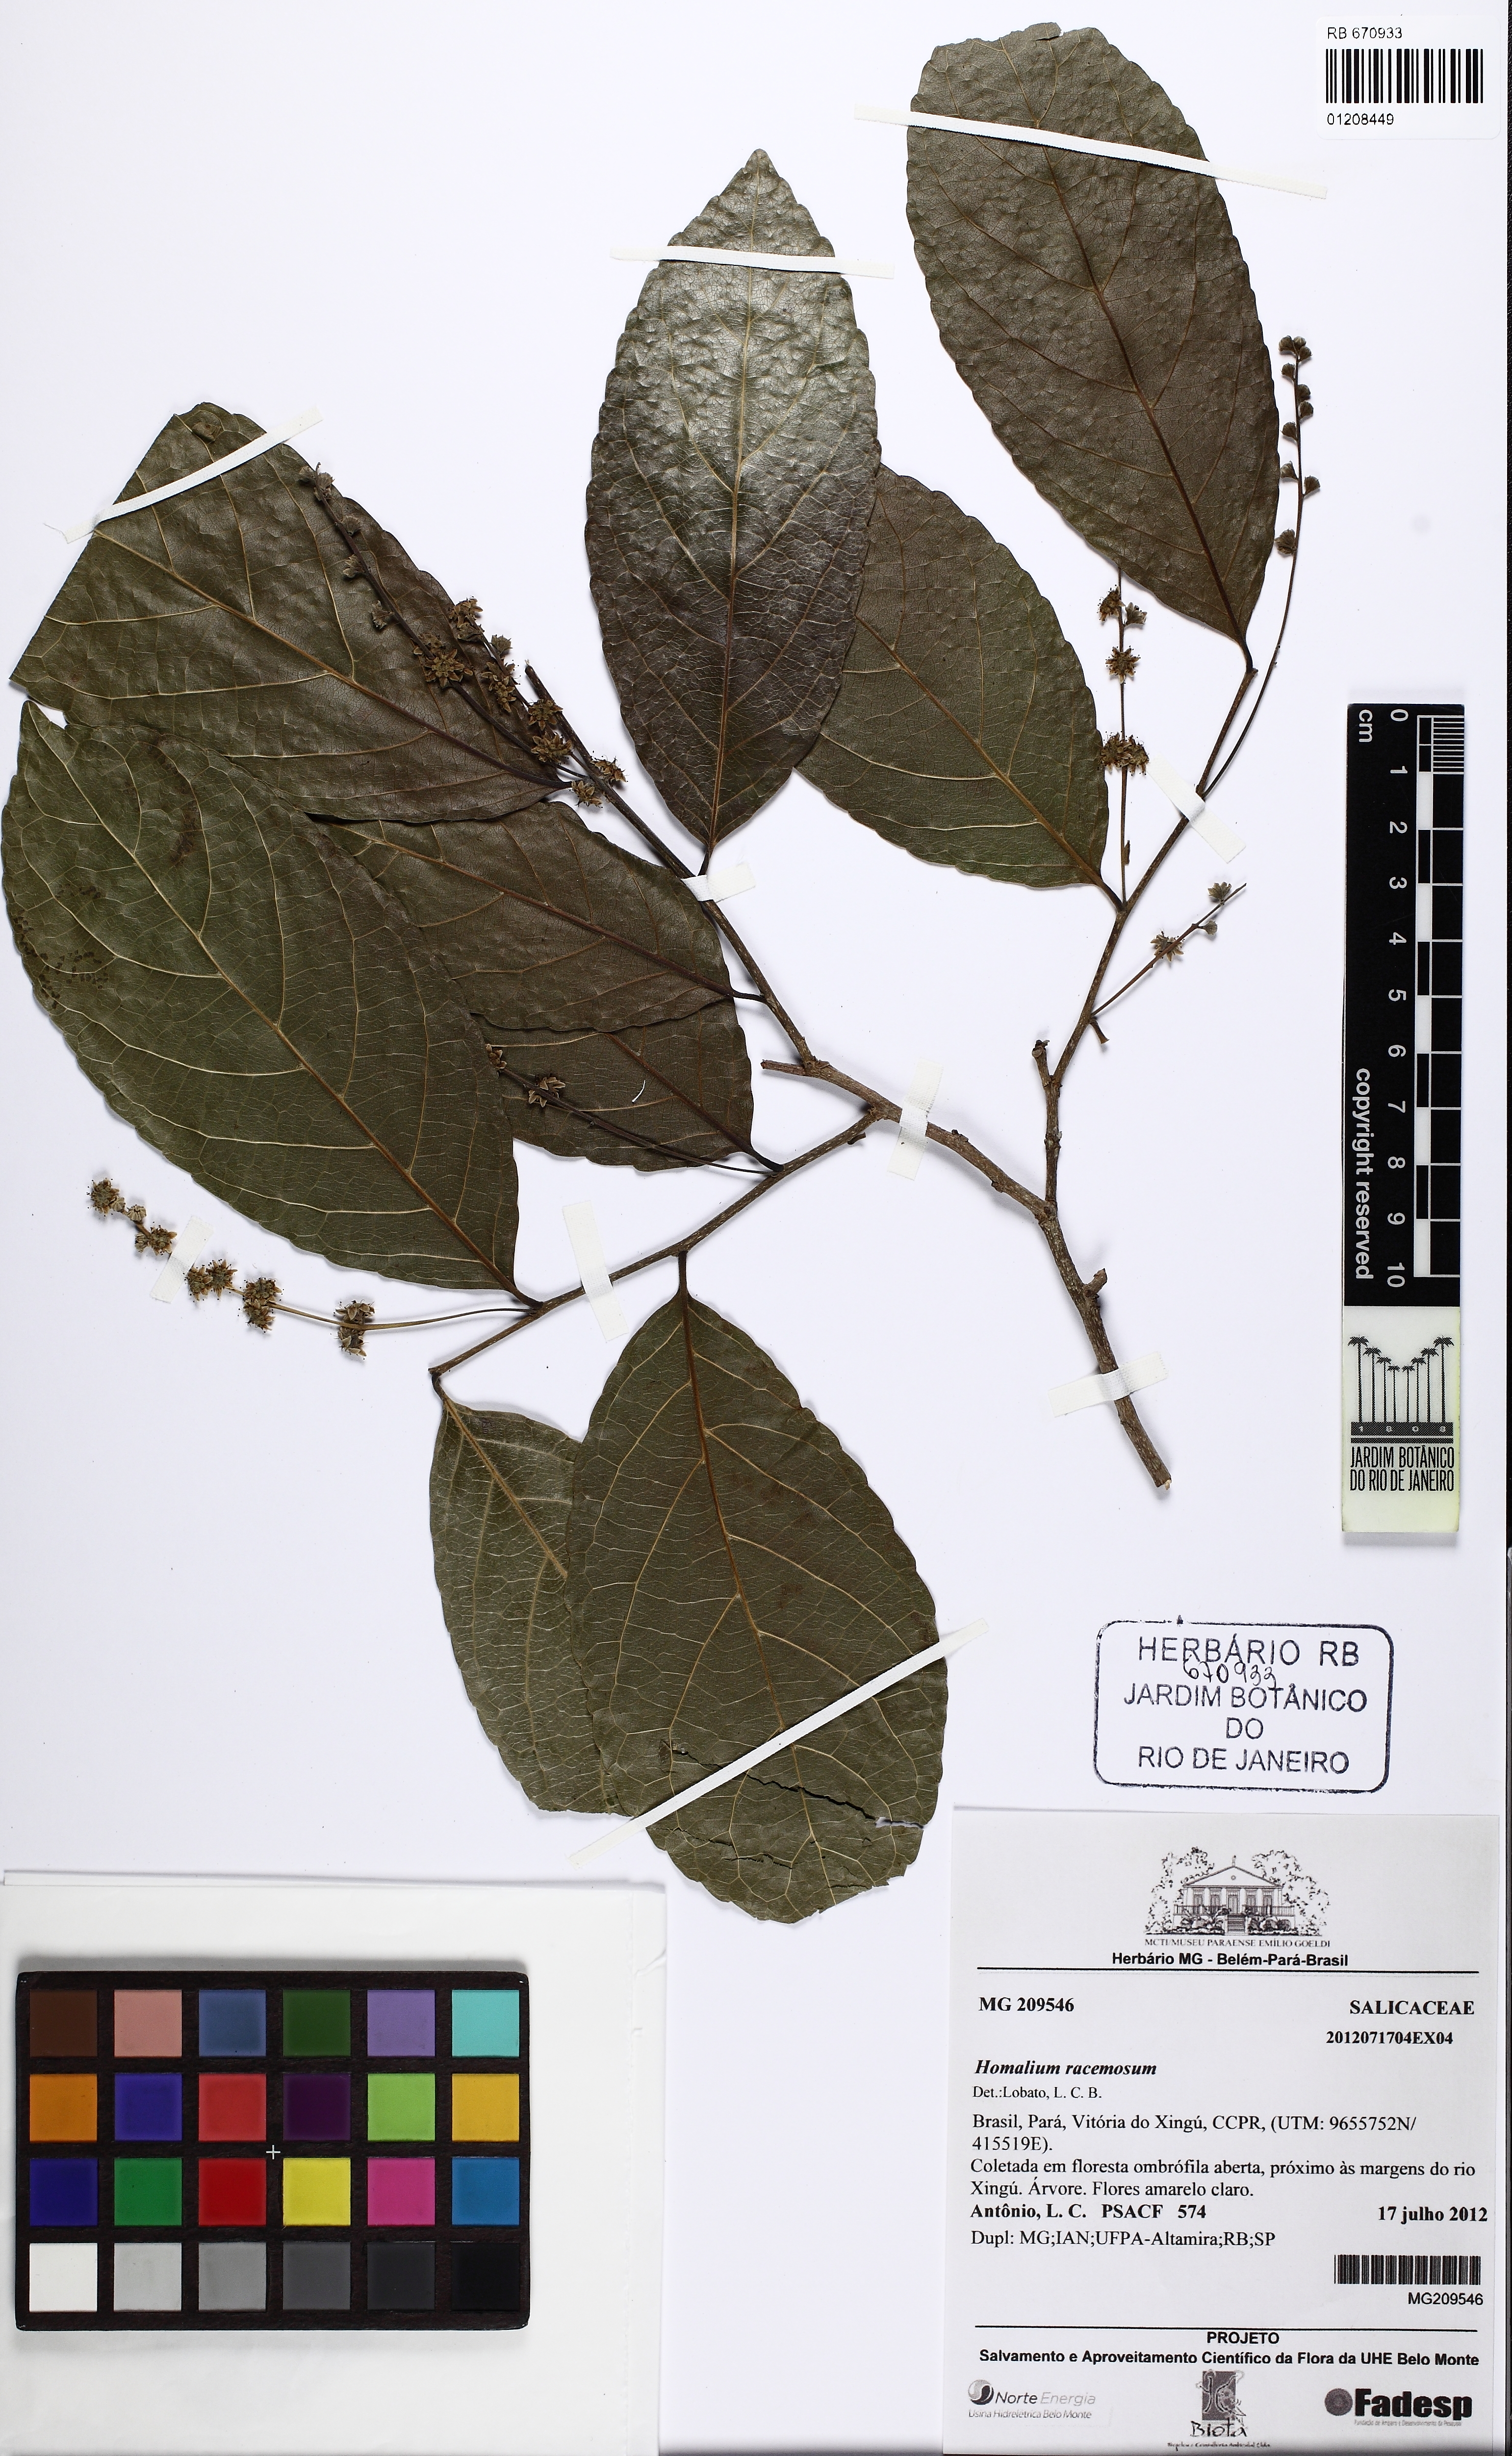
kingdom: Plantae
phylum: Tracheophyta
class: Magnoliopsida
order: Malpighiales
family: Salicaceae
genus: Homalium
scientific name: Homalium racemosum
